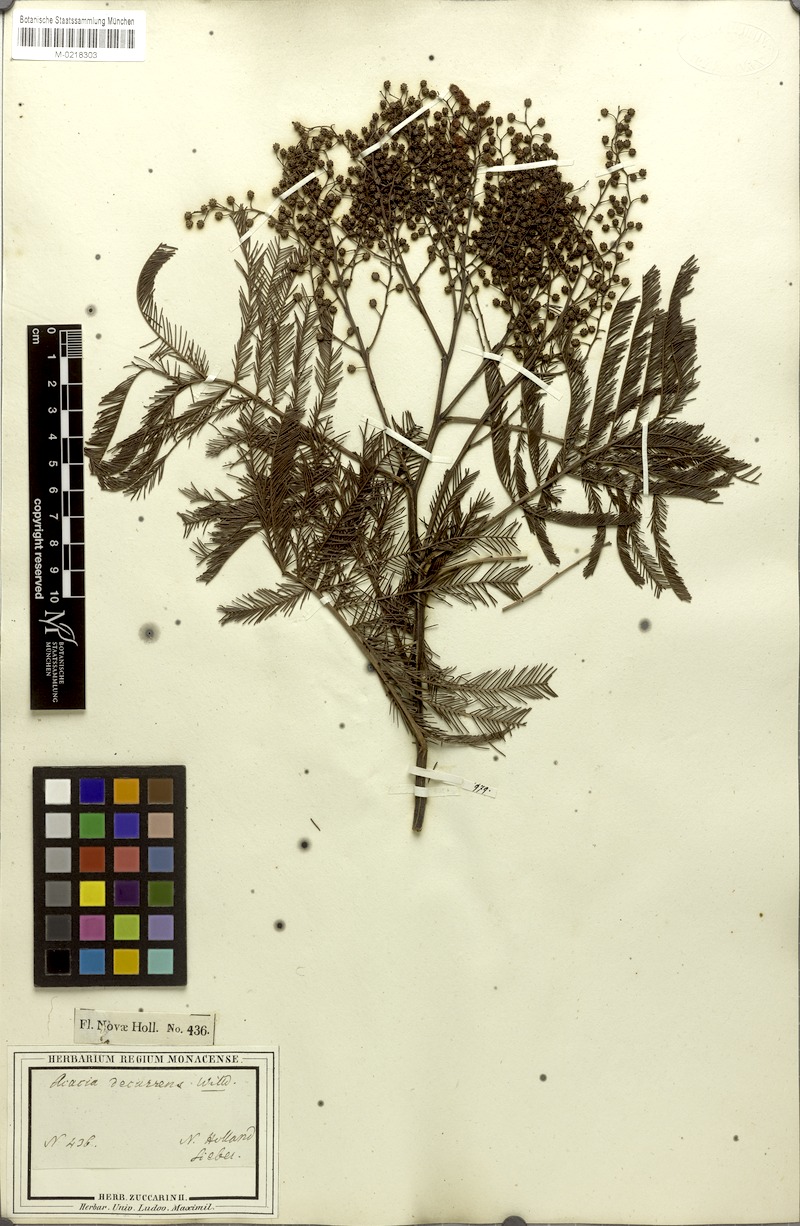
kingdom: Plantae
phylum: Tracheophyta
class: Magnoliopsida
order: Fabales
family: Fabaceae
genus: Acacia
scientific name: Acacia decurrens
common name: Green wattle
